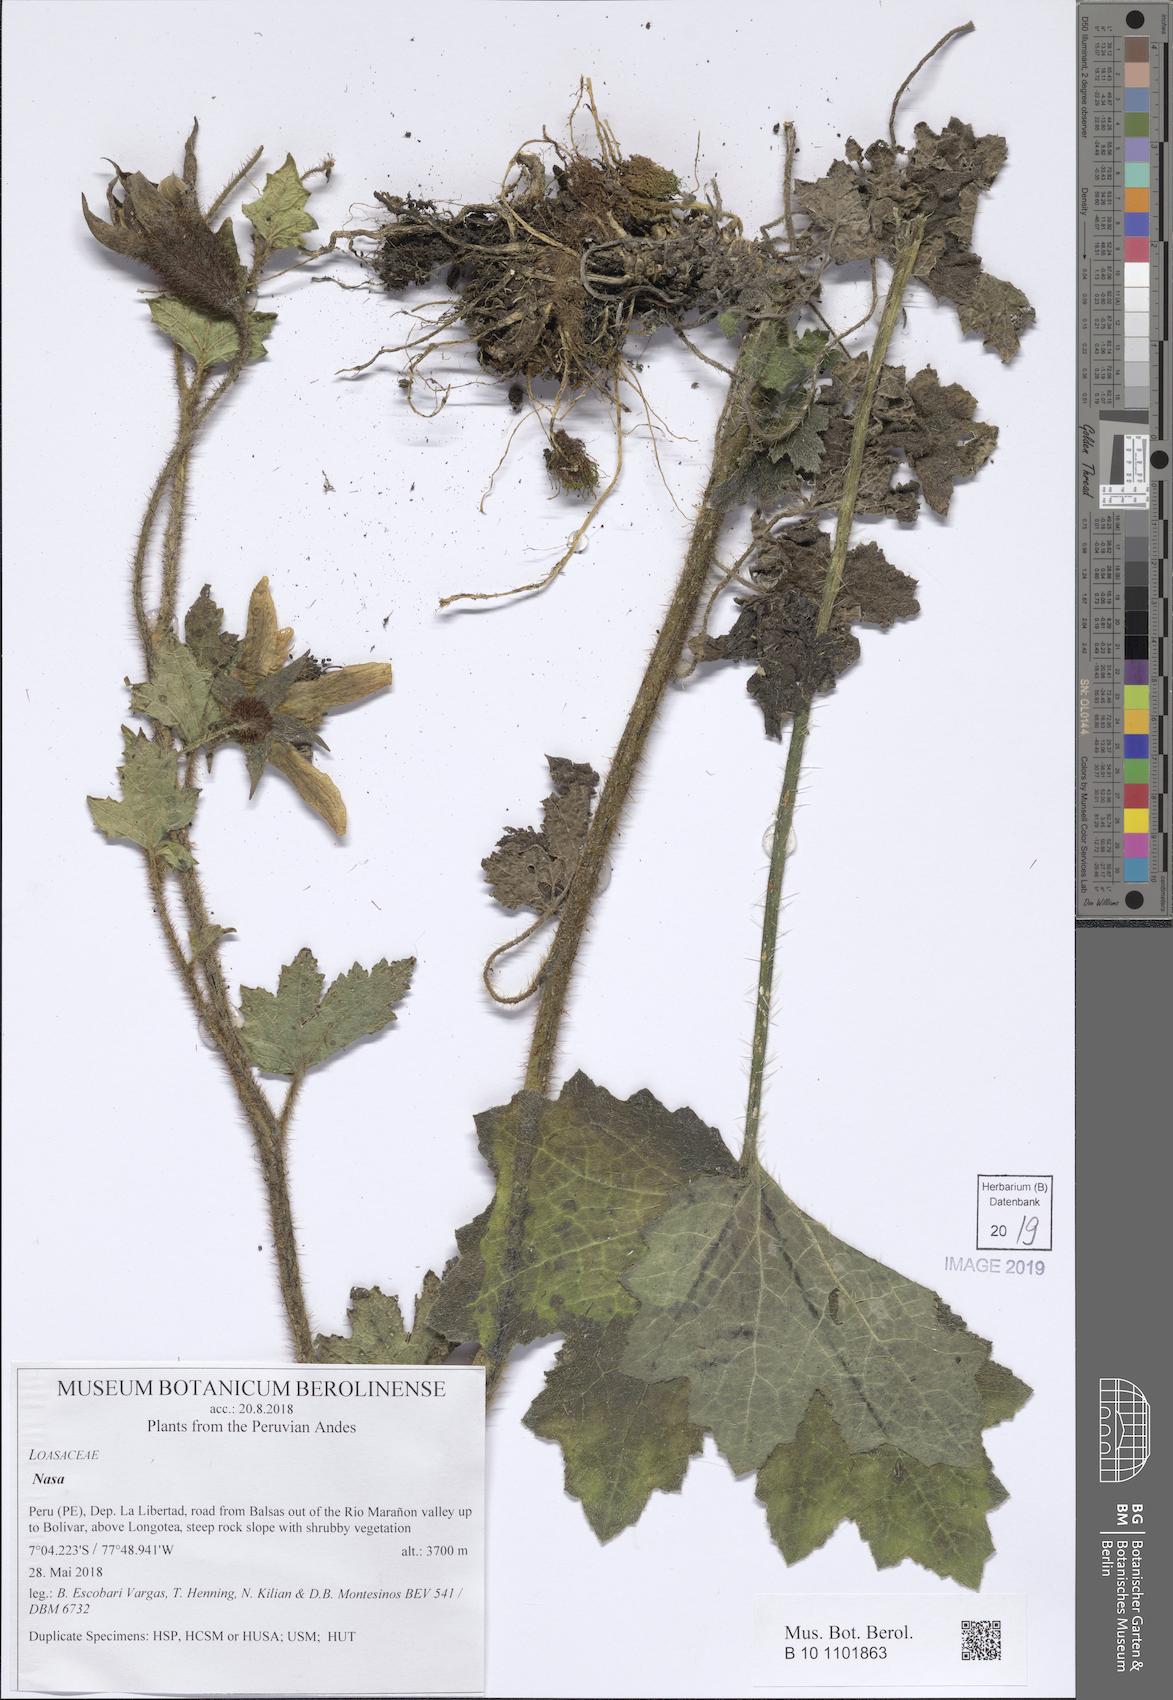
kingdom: Plantae
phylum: Tracheophyta
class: Magnoliopsida
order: Cornales
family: Loasaceae
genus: Nasa
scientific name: Nasa basilica
